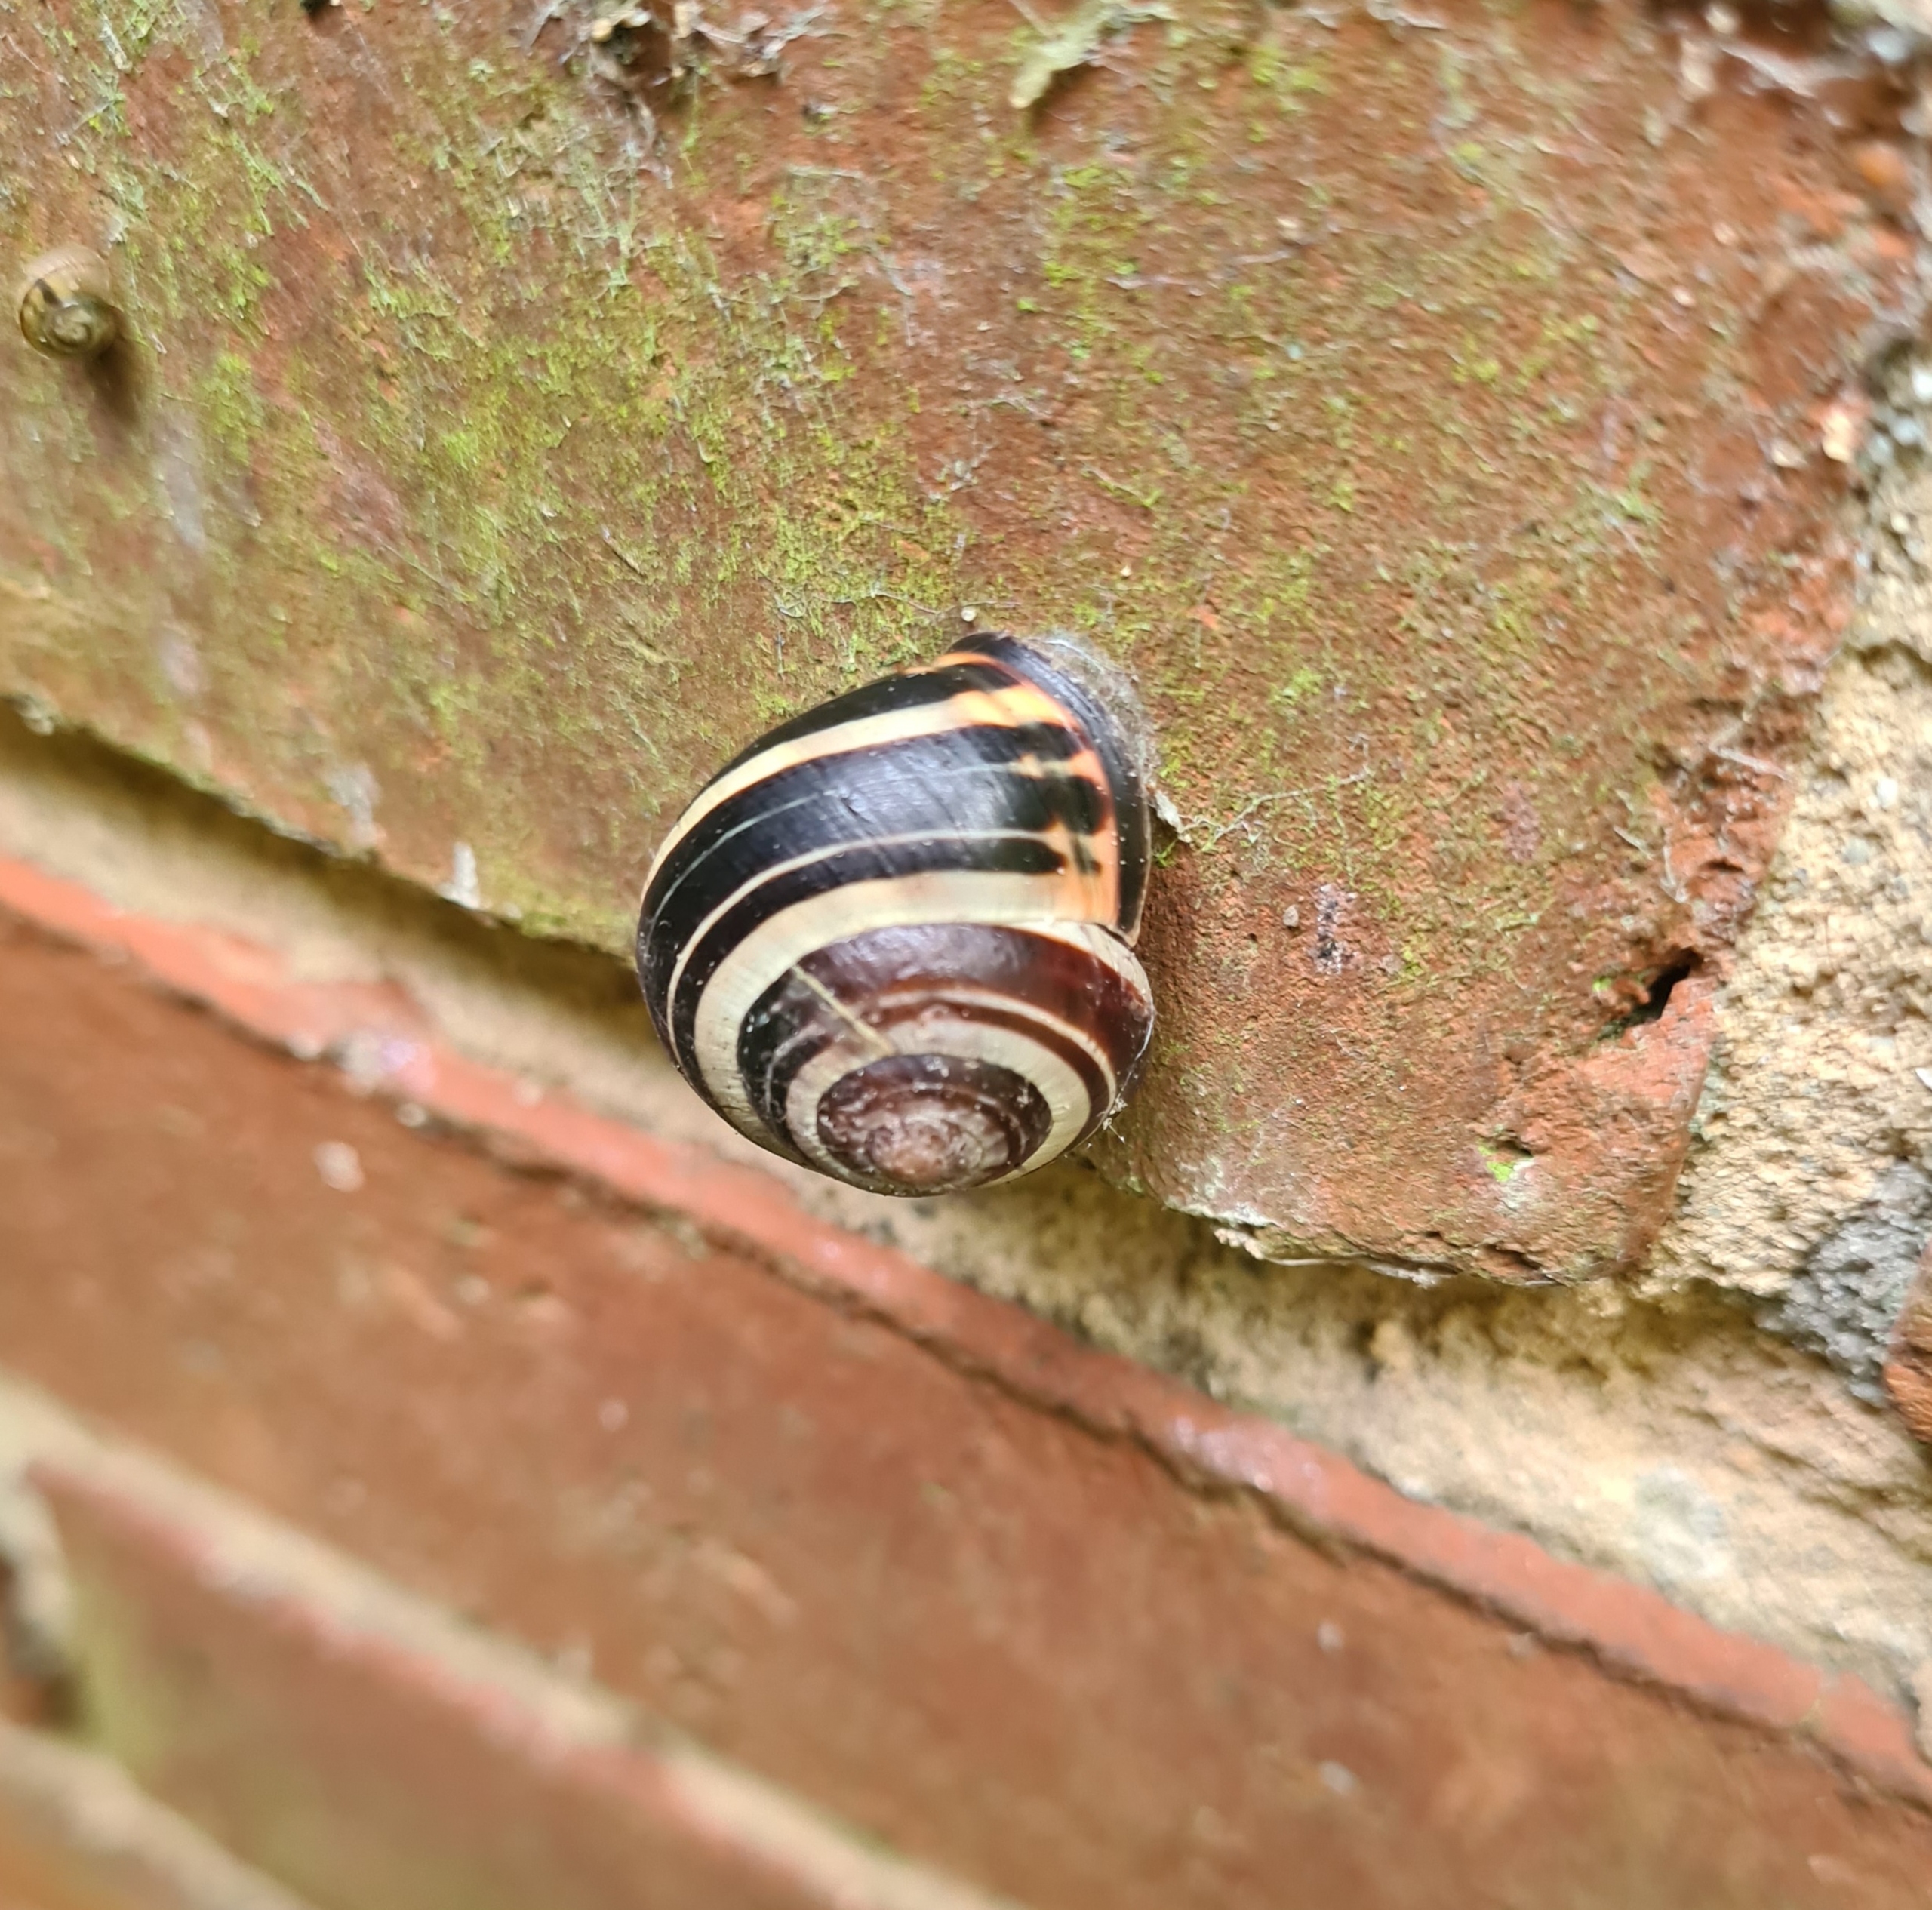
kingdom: Animalia
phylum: Mollusca
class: Gastropoda
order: Stylommatophora
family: Helicidae
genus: Cepaea
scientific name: Cepaea nemoralis
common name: Lundsnegl
